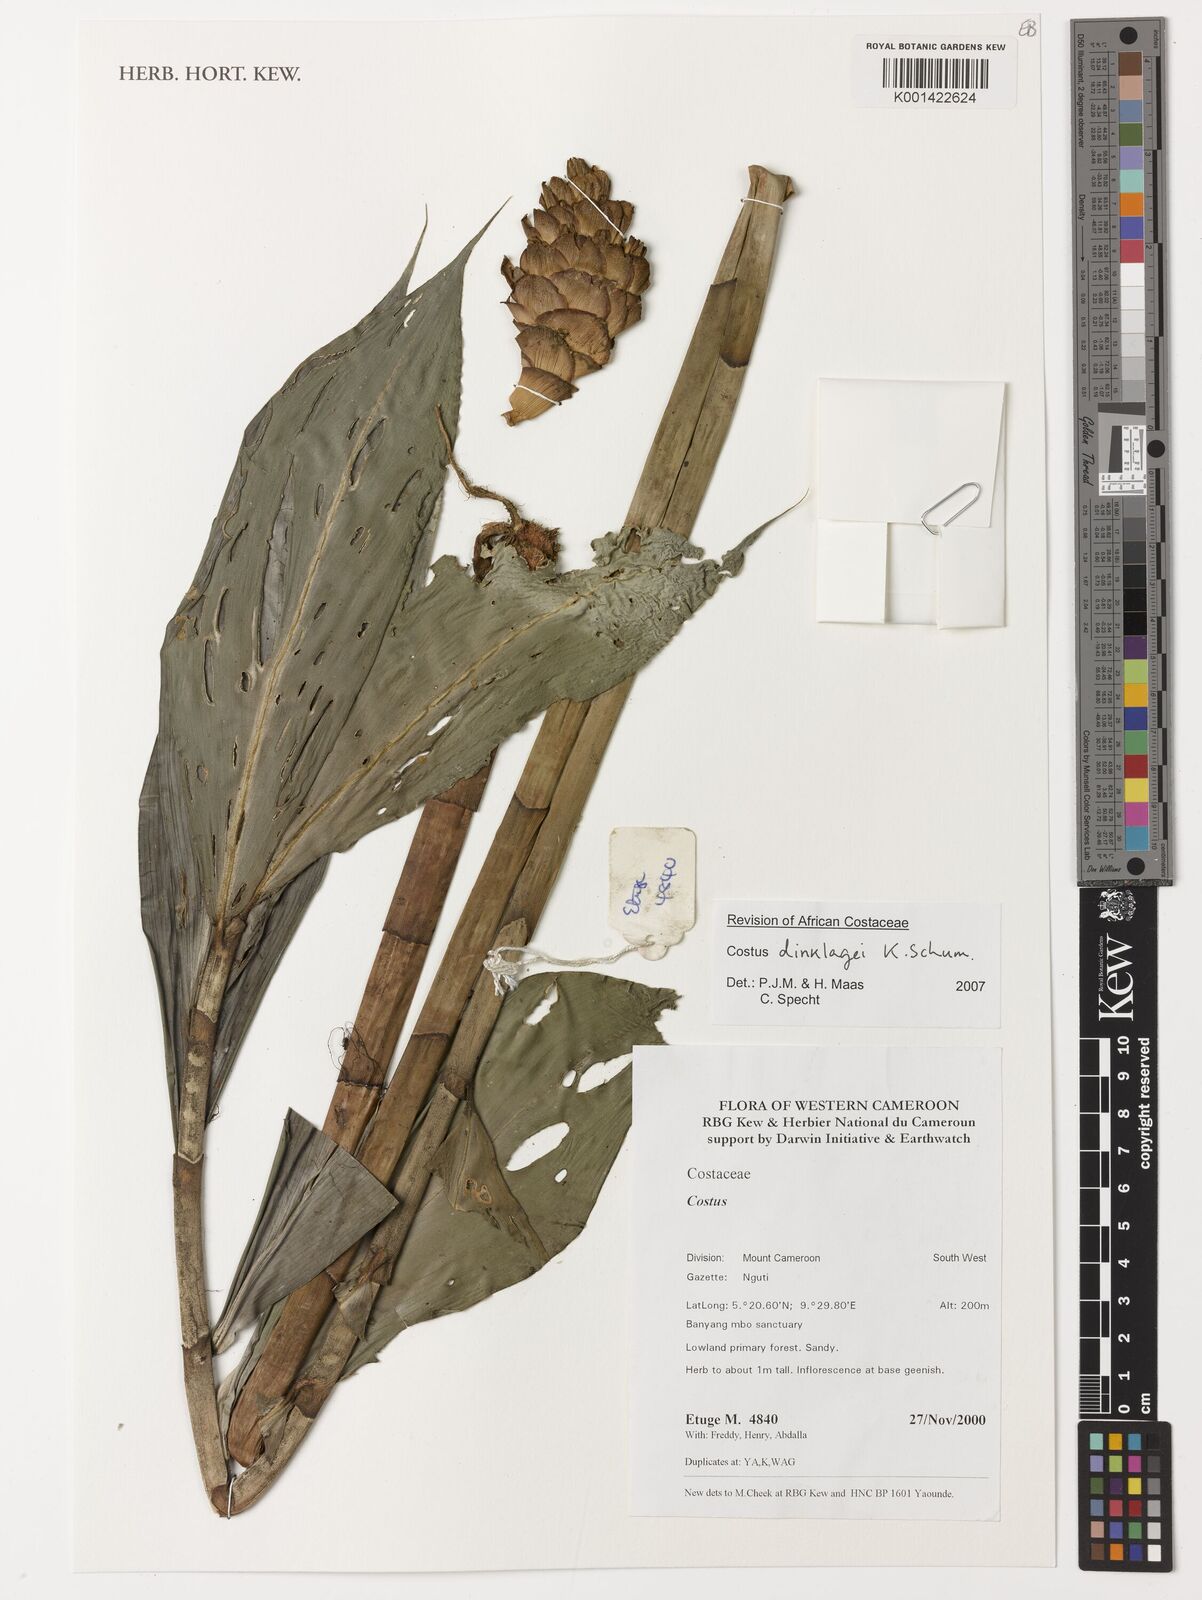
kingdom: Plantae
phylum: Tracheophyta
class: Liliopsida
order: Zingiberales
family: Costaceae
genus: Costus
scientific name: Costus dinklagei
